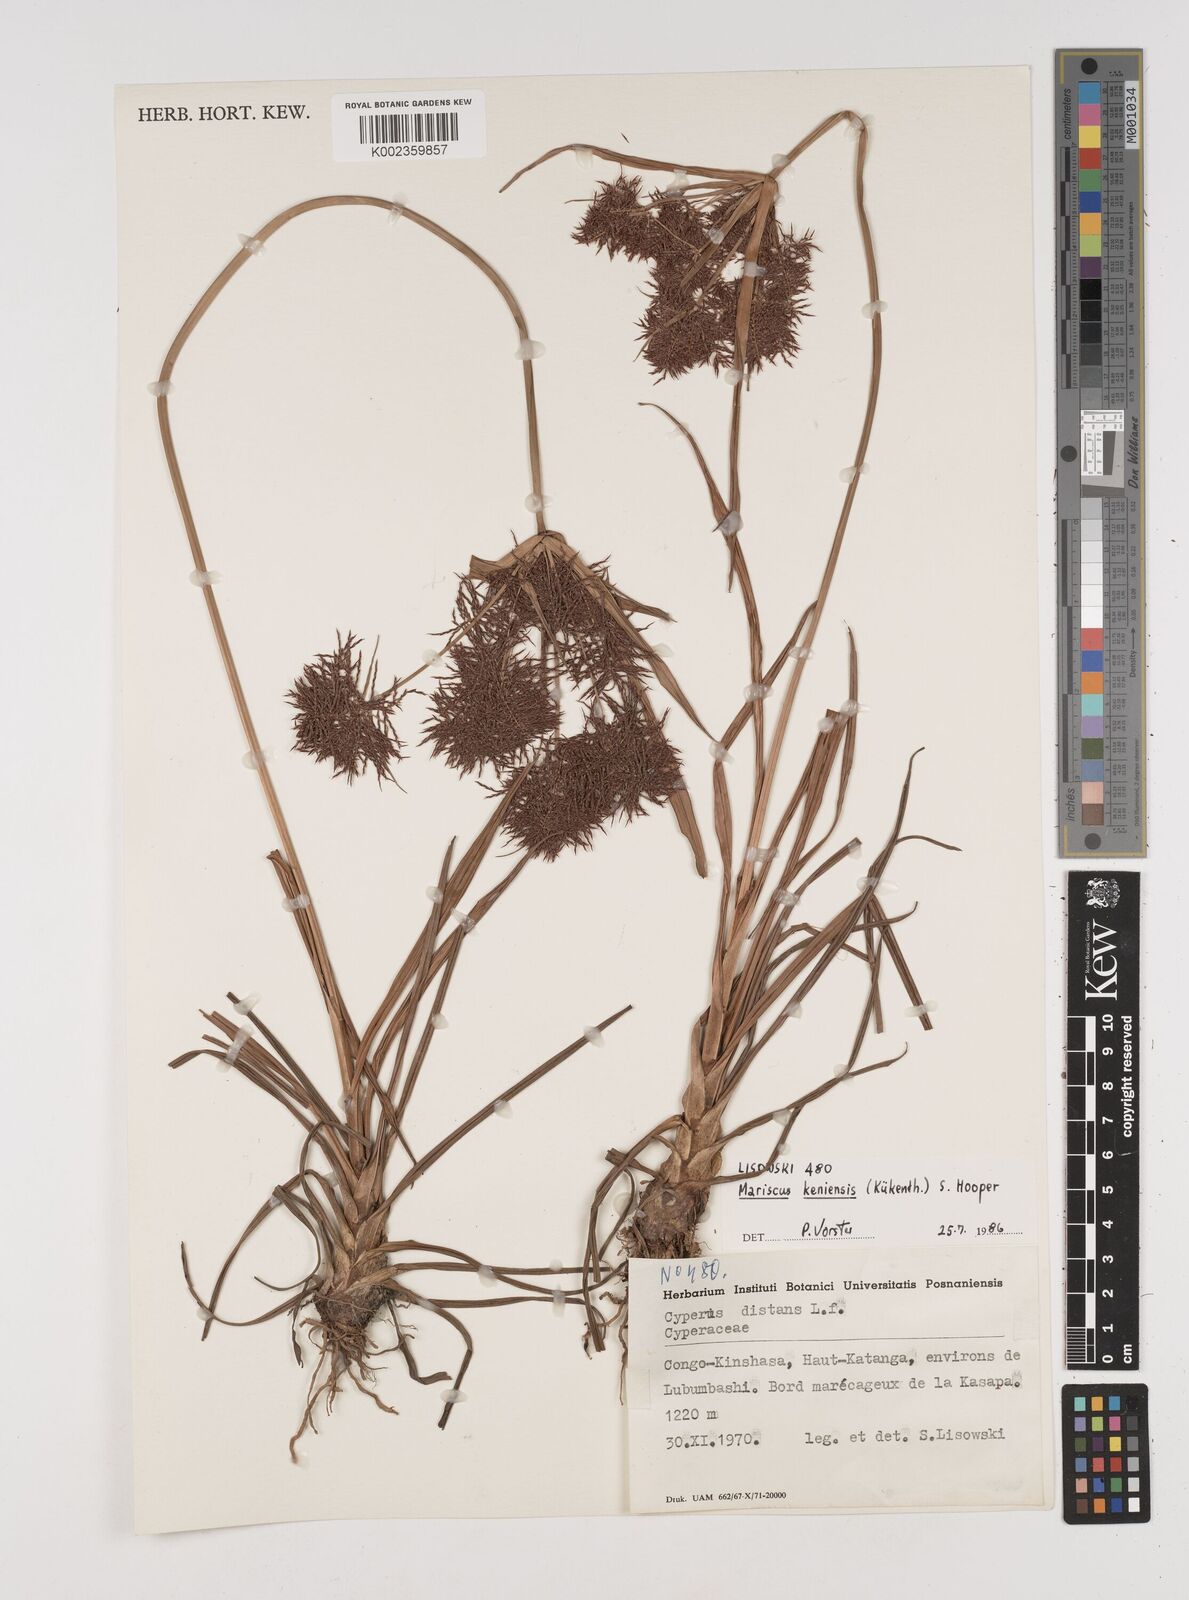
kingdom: Plantae
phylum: Tracheophyta
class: Liliopsida
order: Poales
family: Cyperaceae
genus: Cyperus
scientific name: Cyperus distans
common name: Slender cyperus
